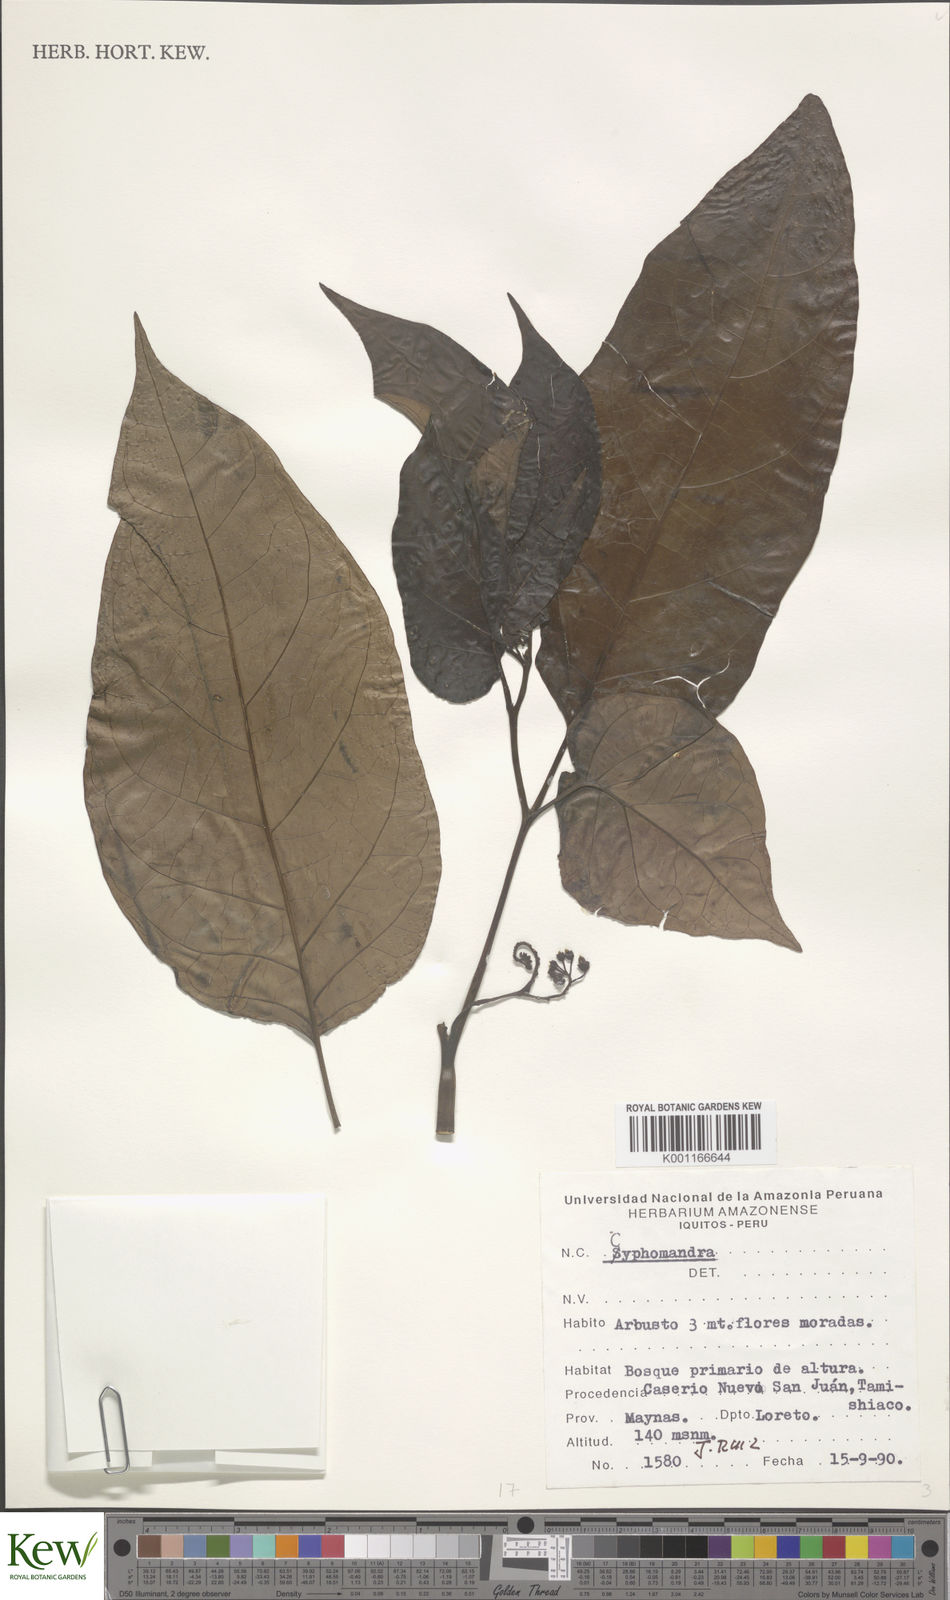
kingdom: Plantae
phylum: Tracheophyta
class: Magnoliopsida
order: Solanales
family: Solanaceae
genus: Solanum
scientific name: Solanum
